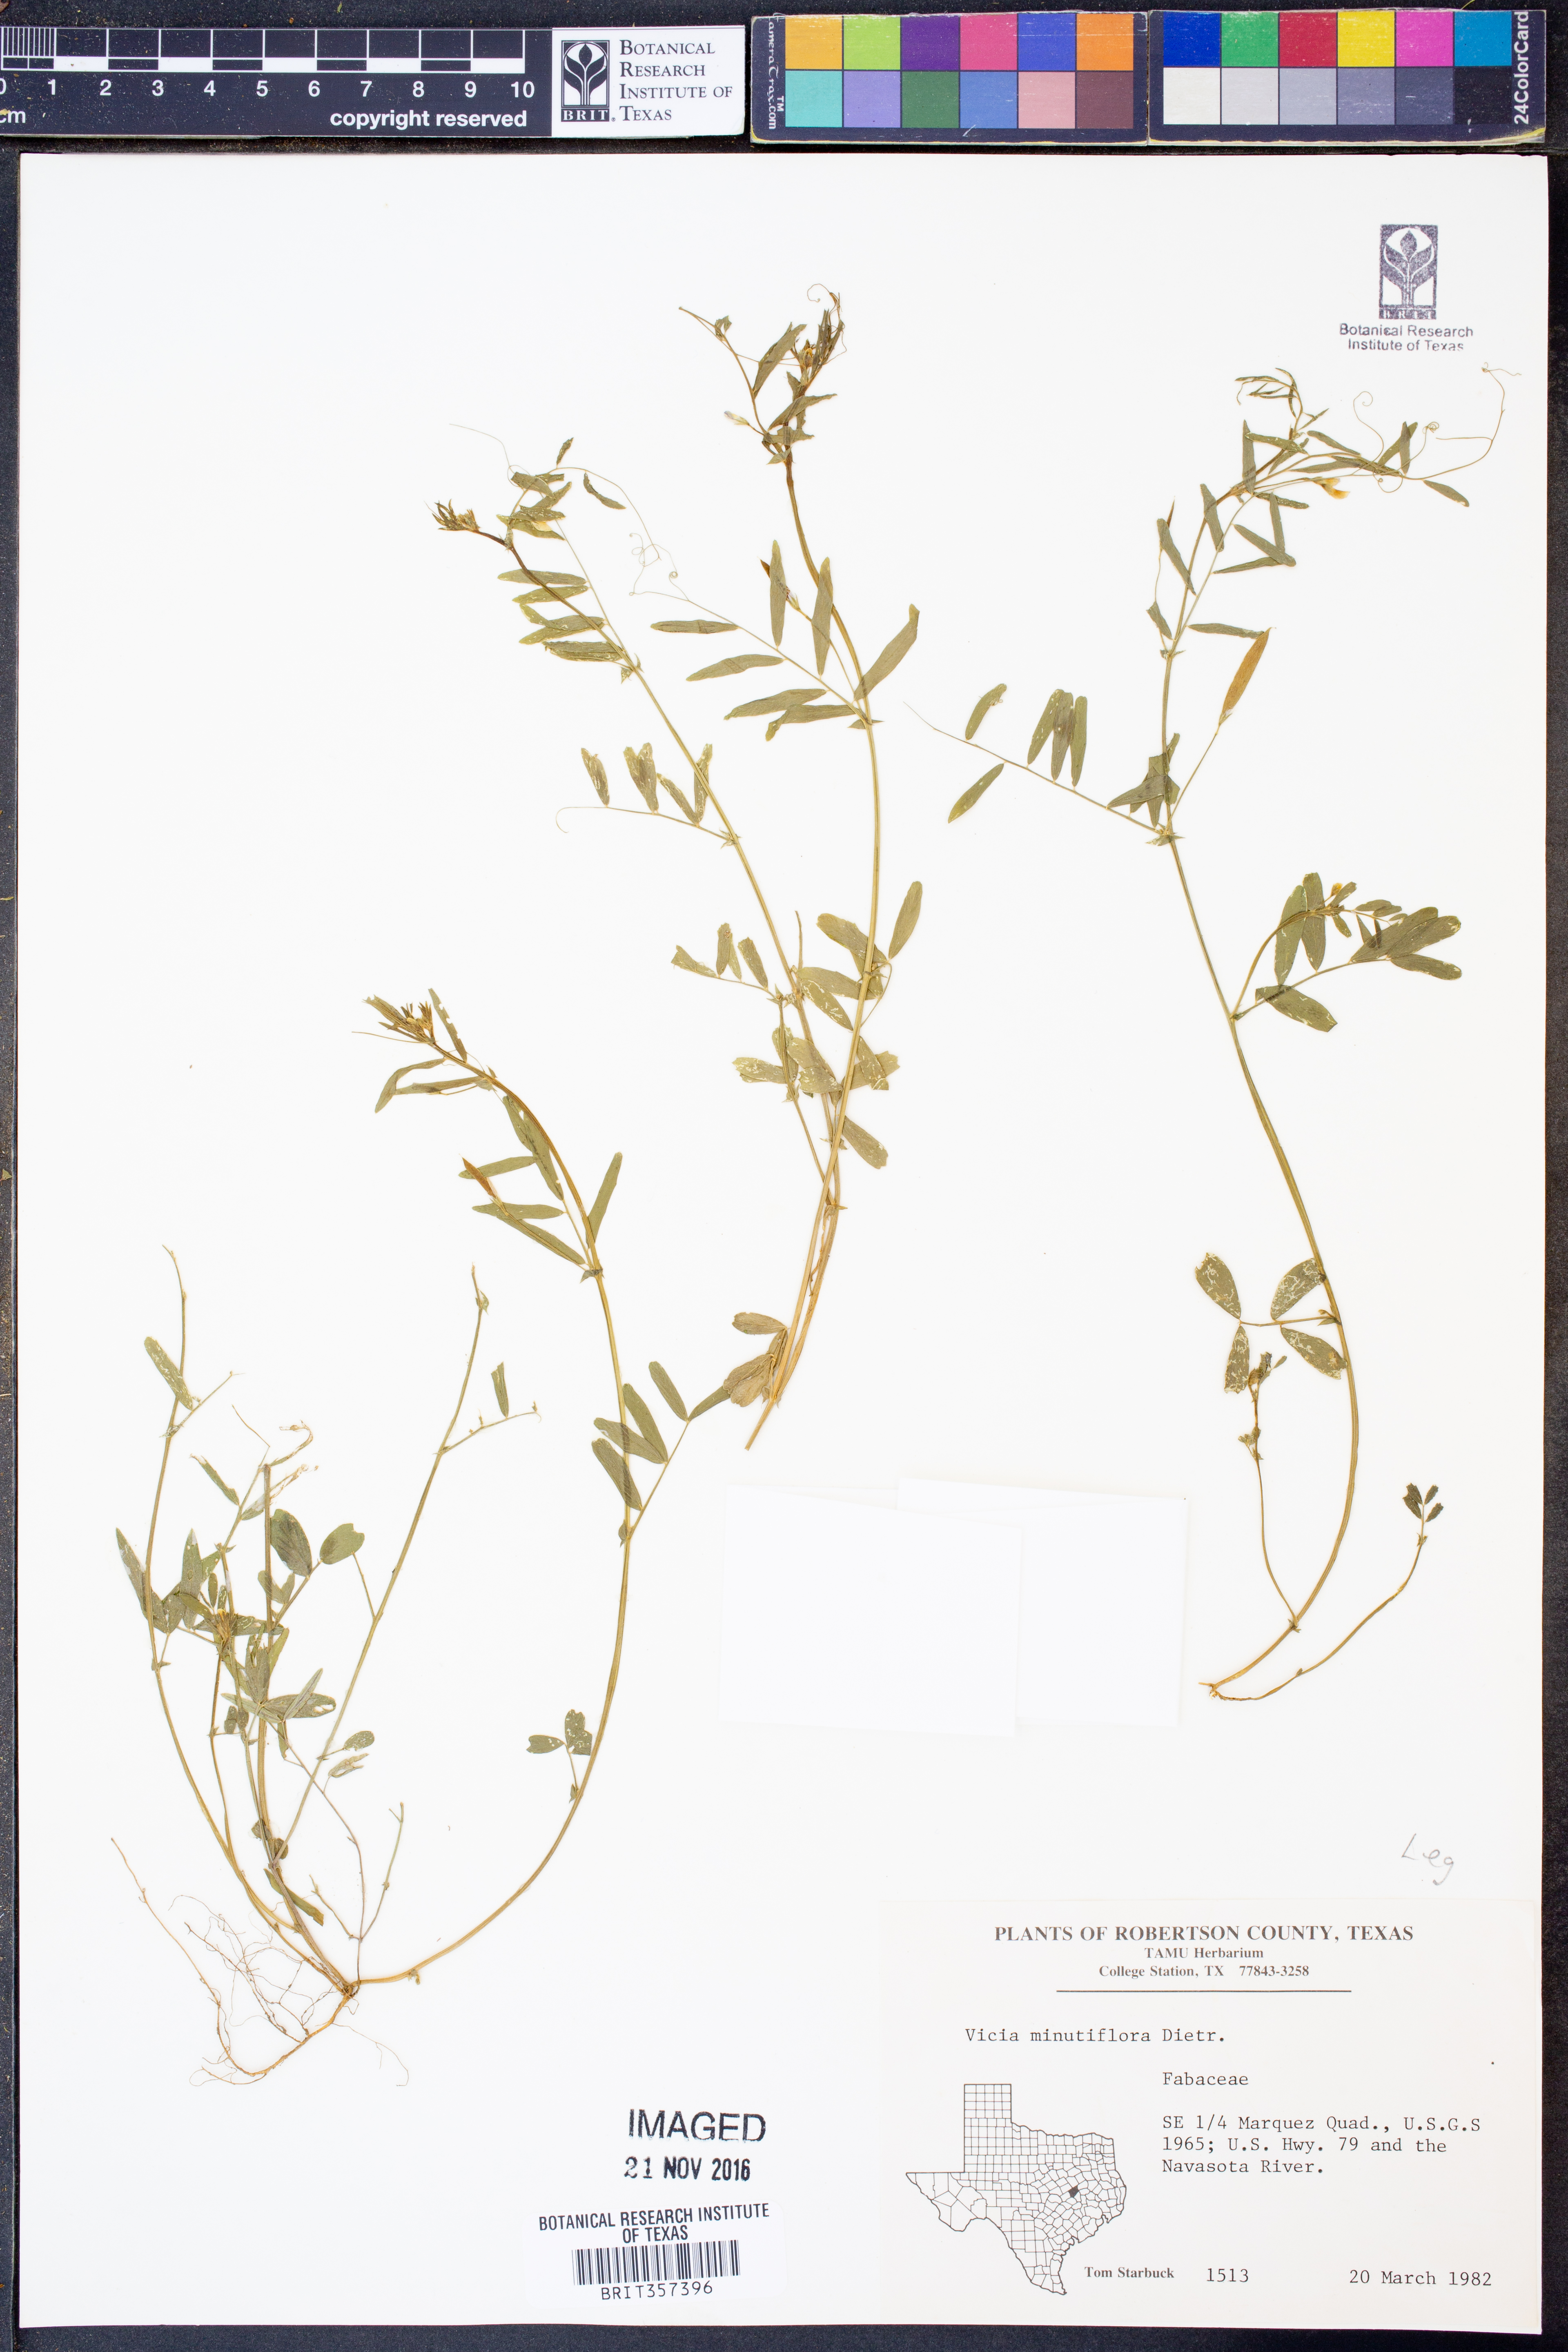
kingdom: Plantae
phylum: Tracheophyta
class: Magnoliopsida
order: Fabales
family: Fabaceae
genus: Vicia
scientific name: Vicia minutiflora
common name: Pygmy-flower vetch
